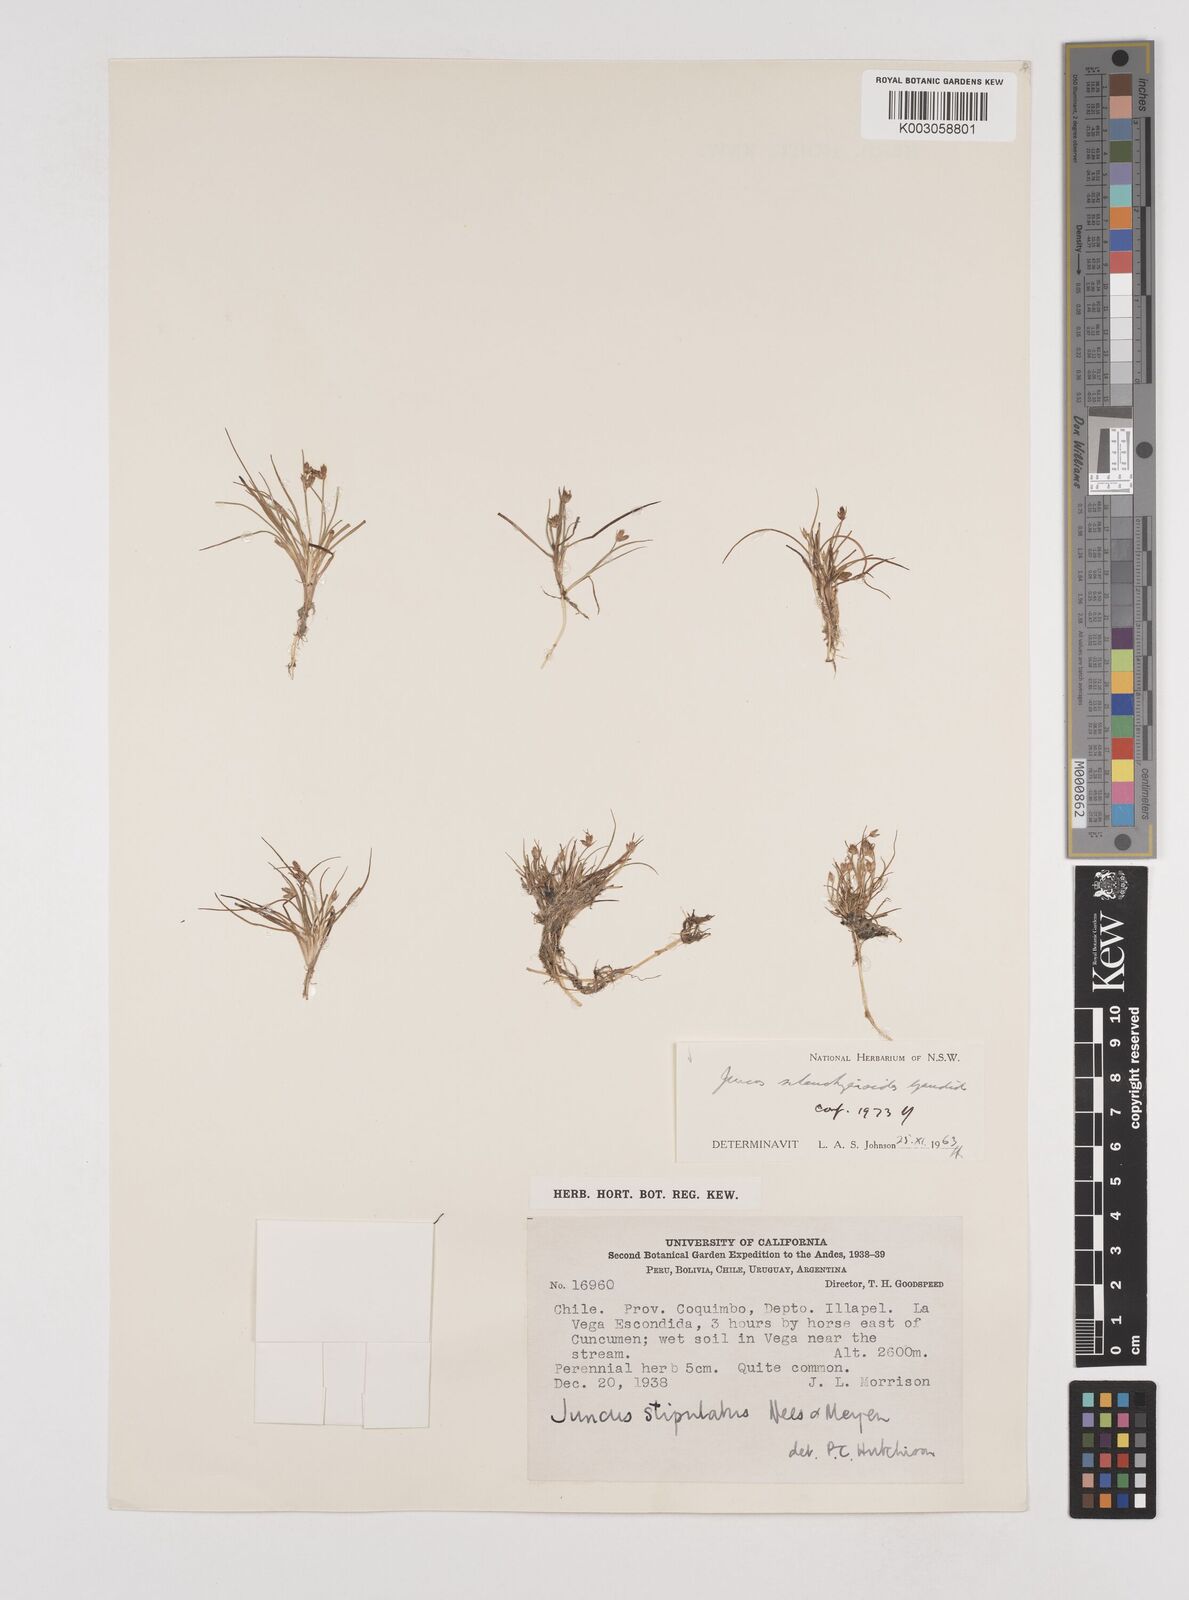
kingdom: Plantae
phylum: Tracheophyta
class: Liliopsida
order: Poales
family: Juncaceae
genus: Juncus
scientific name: Juncus scheuchzerioides
